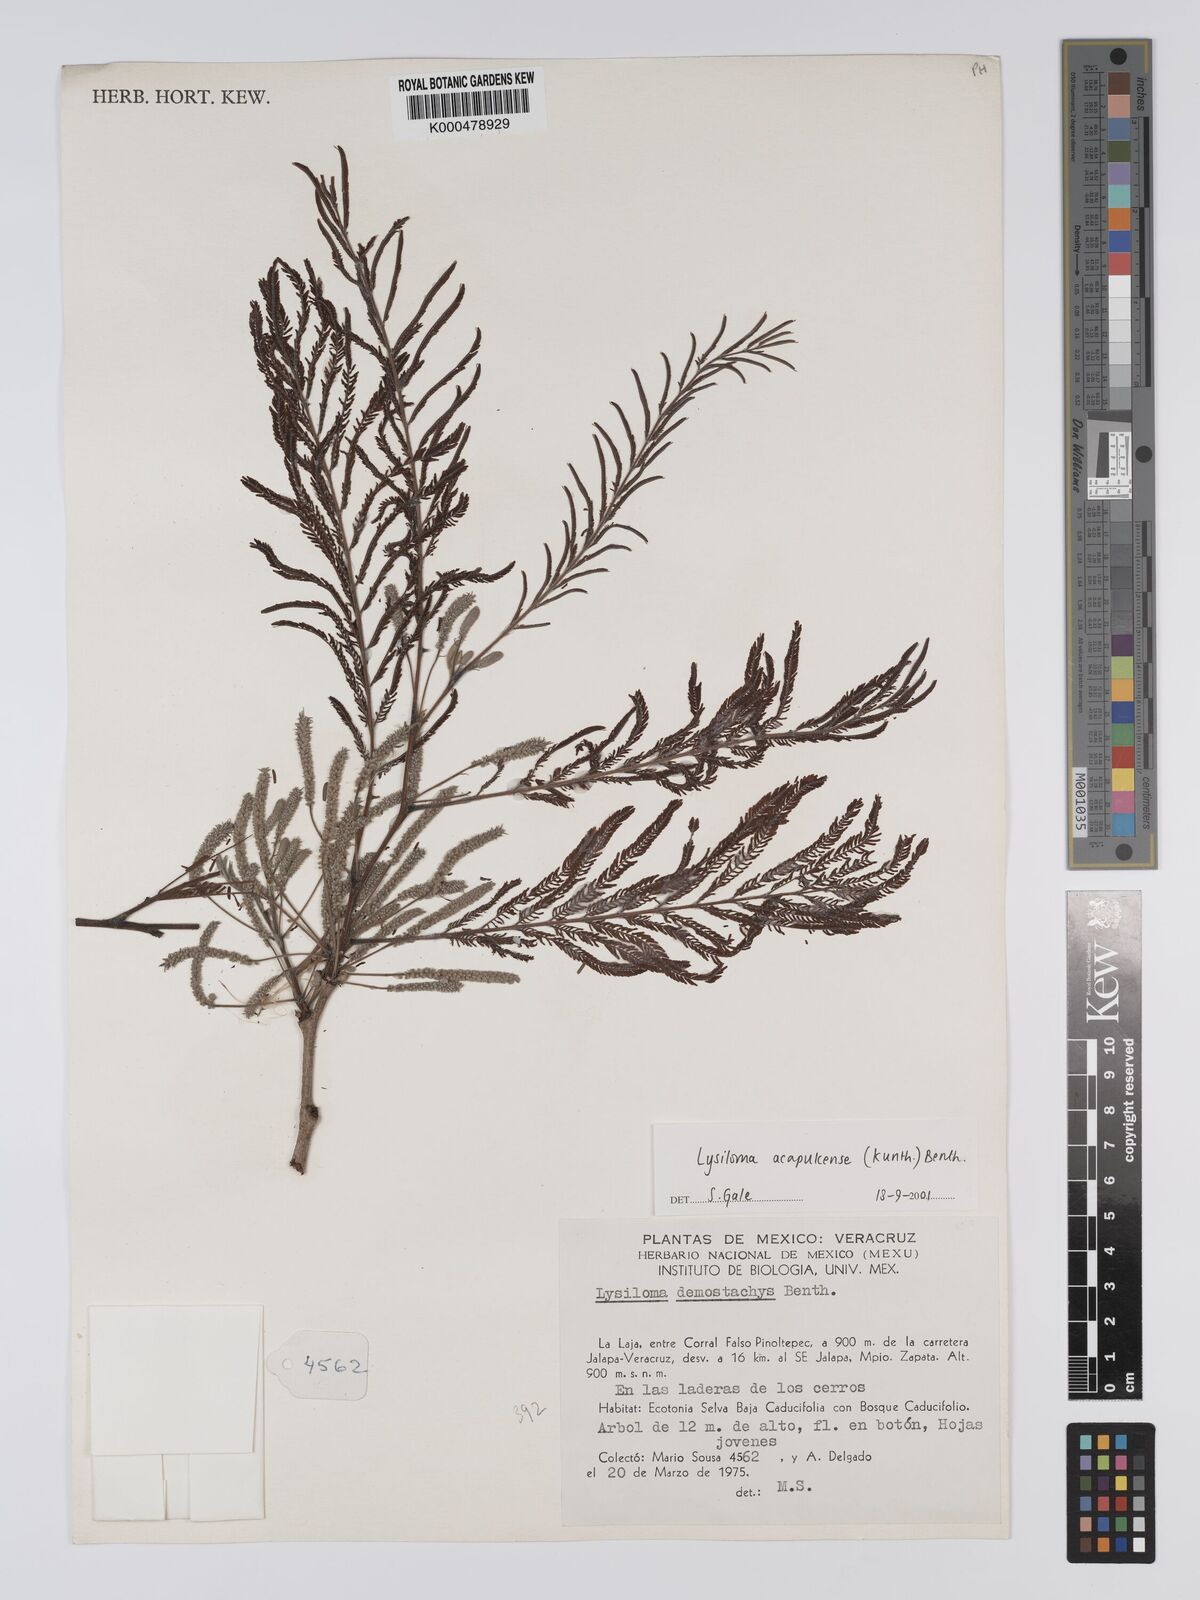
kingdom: Plantae
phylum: Tracheophyta
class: Magnoliopsida
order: Fabales
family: Fabaceae
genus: Lysiloma
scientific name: Lysiloma
